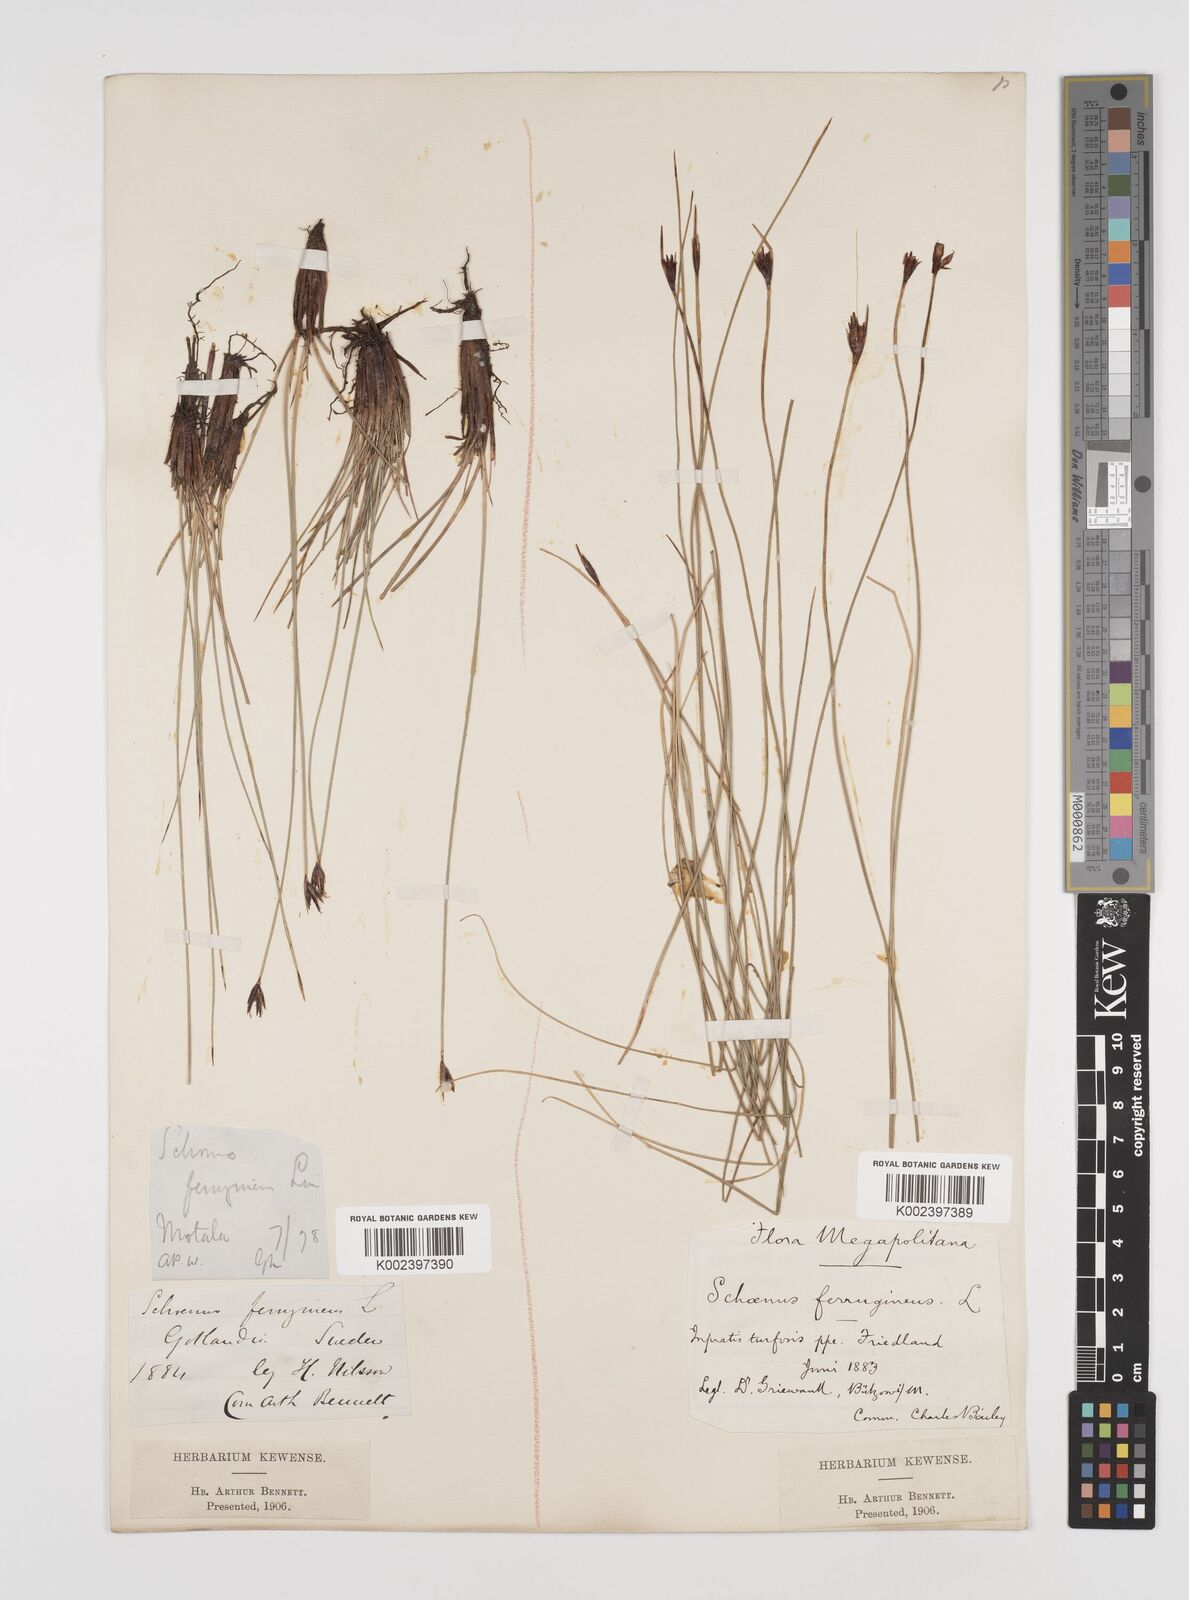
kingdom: Plantae
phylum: Tracheophyta
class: Liliopsida
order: Poales
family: Cyperaceae
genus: Schoenus
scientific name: Schoenus ferrugineus
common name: Brown bog-rush
